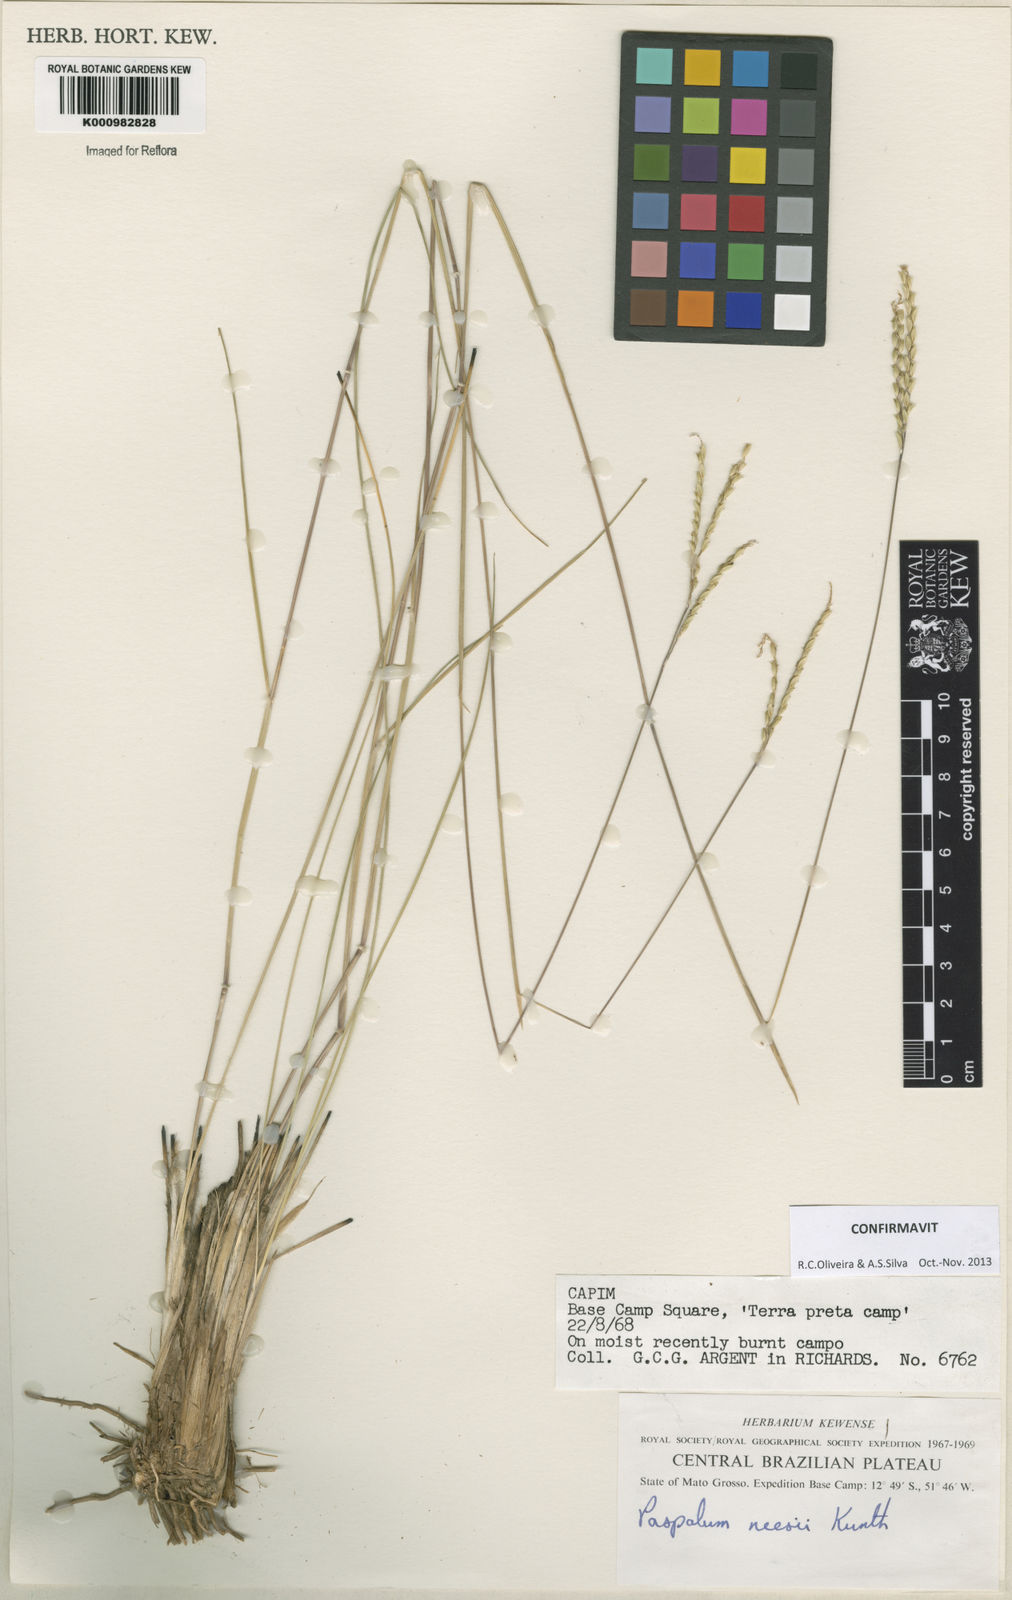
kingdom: Plantae
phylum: Tracheophyta
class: Liliopsida
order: Poales
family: Poaceae
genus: Paspalum
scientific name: Paspalum lineare
